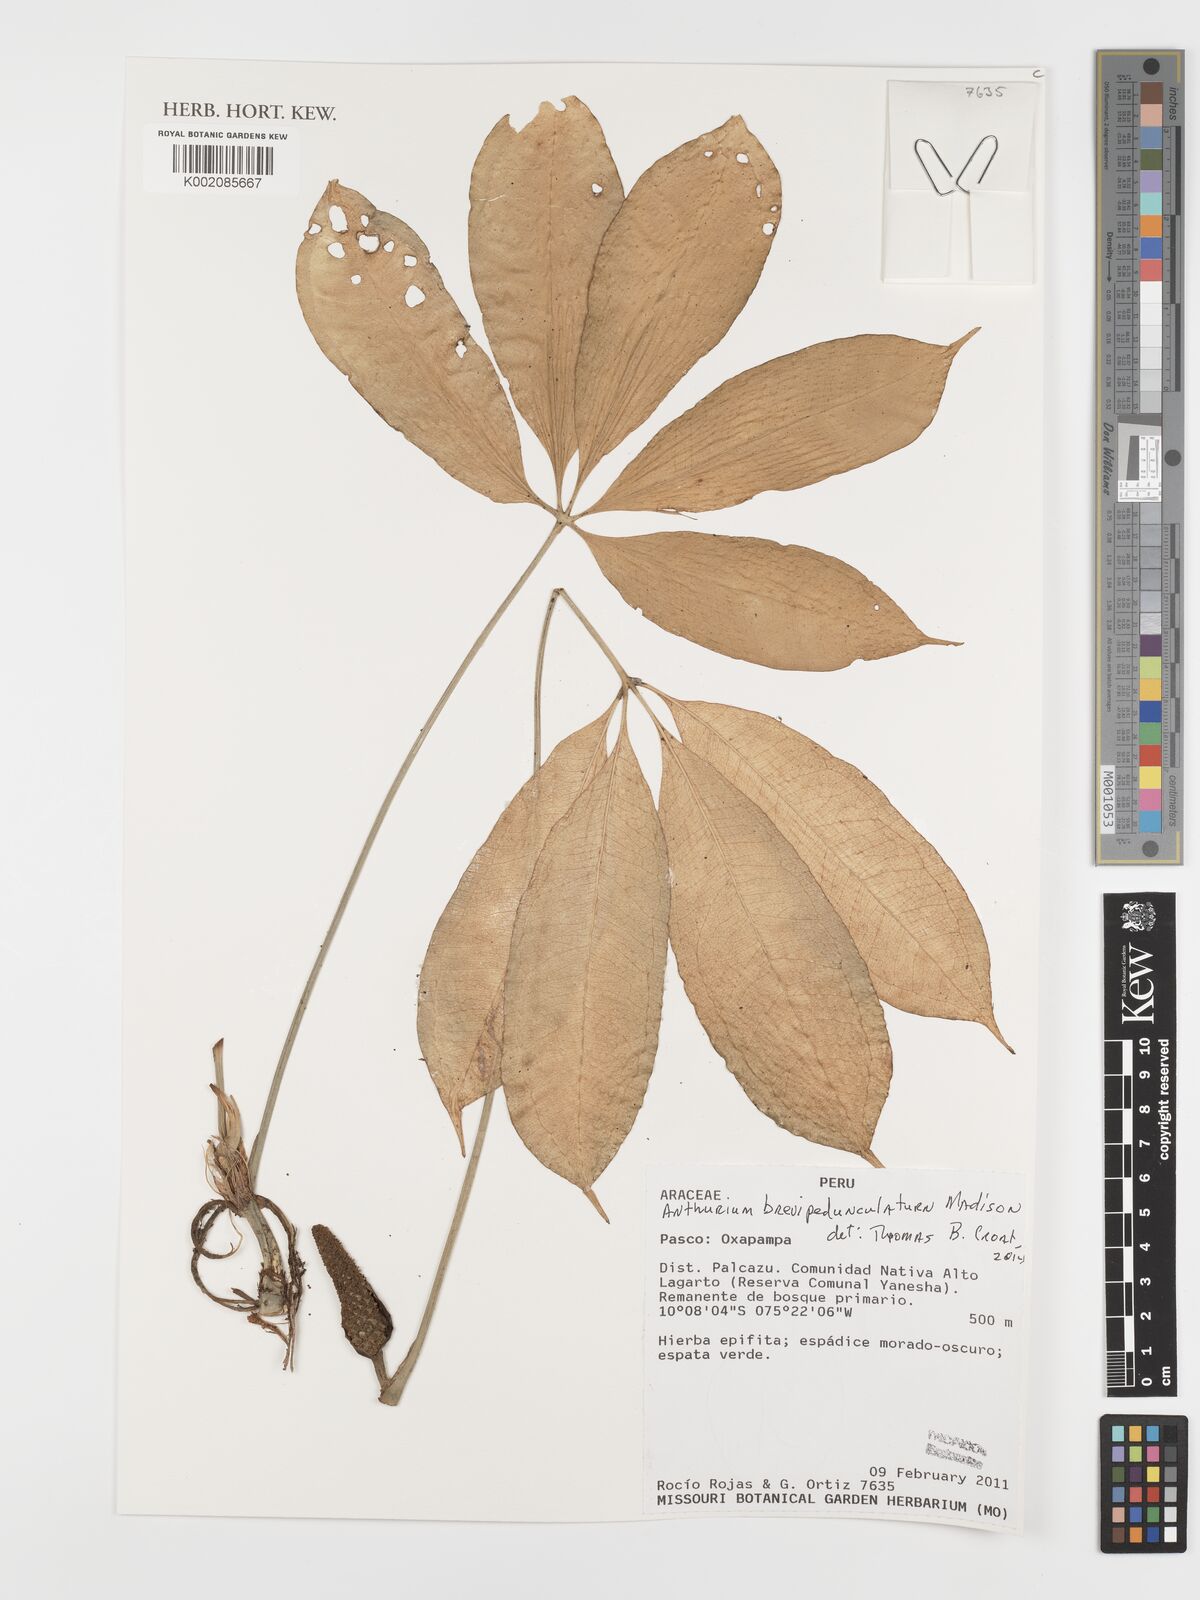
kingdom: Plantae
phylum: Tracheophyta
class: Liliopsida
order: Alismatales
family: Araceae
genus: Anthurium
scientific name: Anthurium brevipedunculatum
